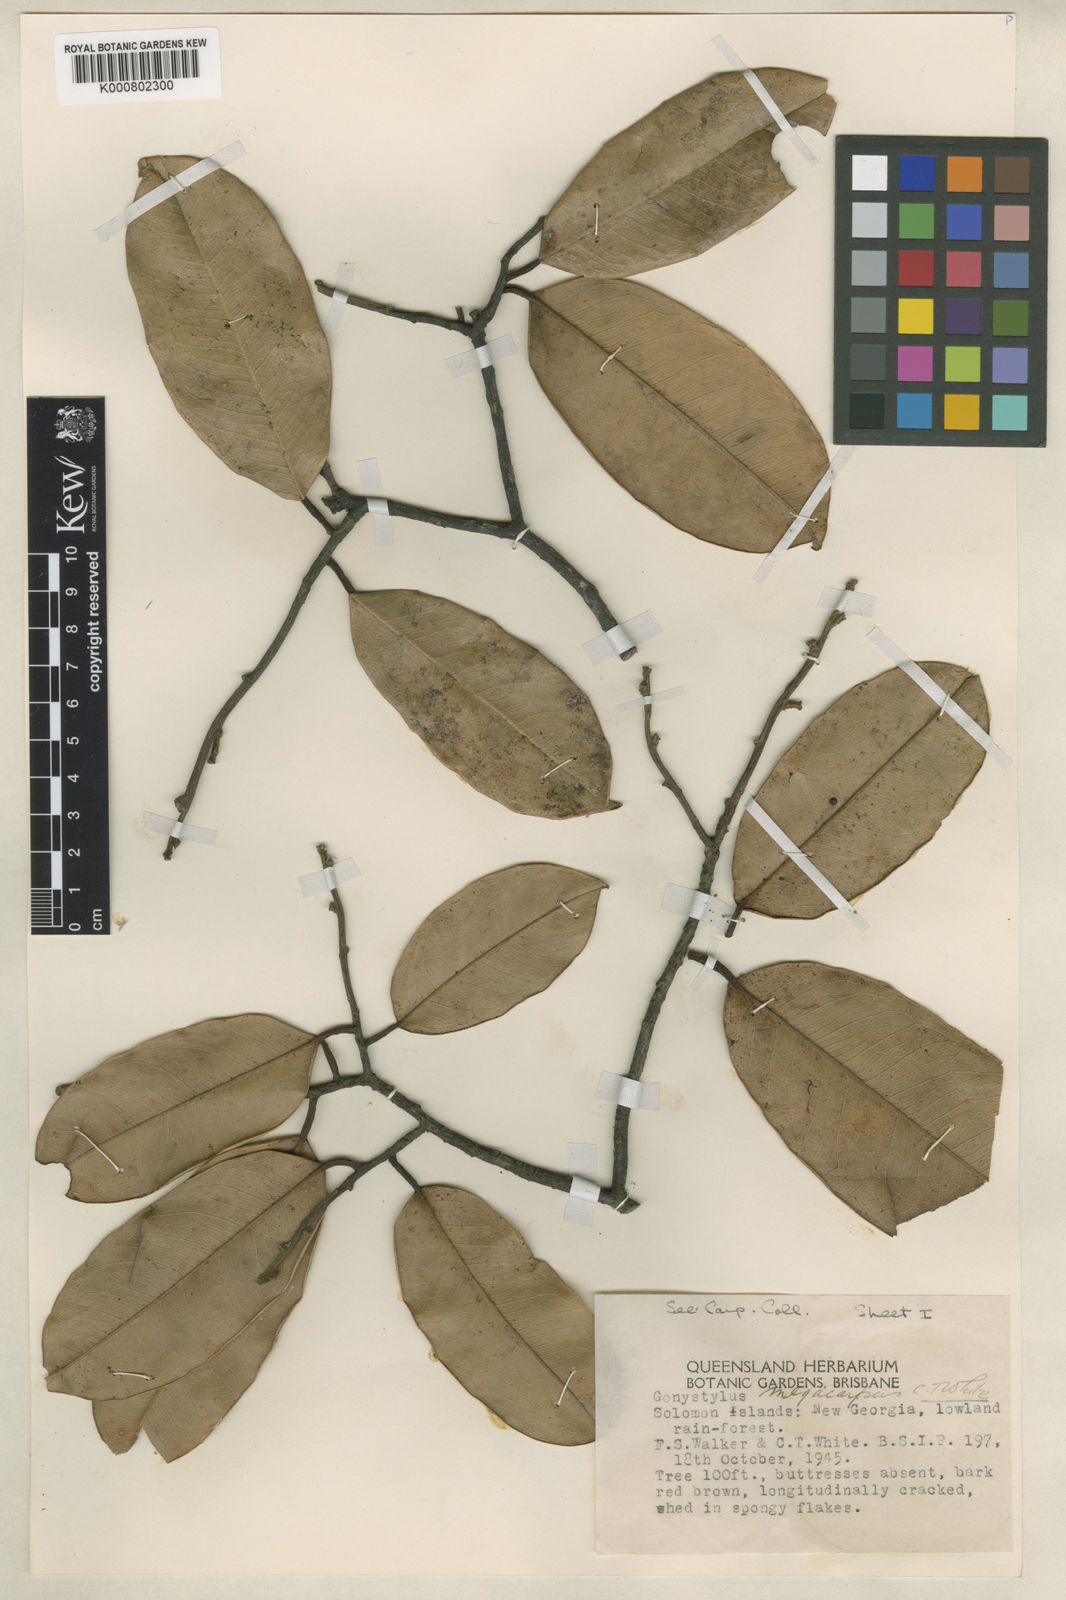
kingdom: Plantae
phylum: Tracheophyta
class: Magnoliopsida
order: Malvales
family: Thymelaeaceae
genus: Gonystylus
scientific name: Gonystylus macrophyllus
